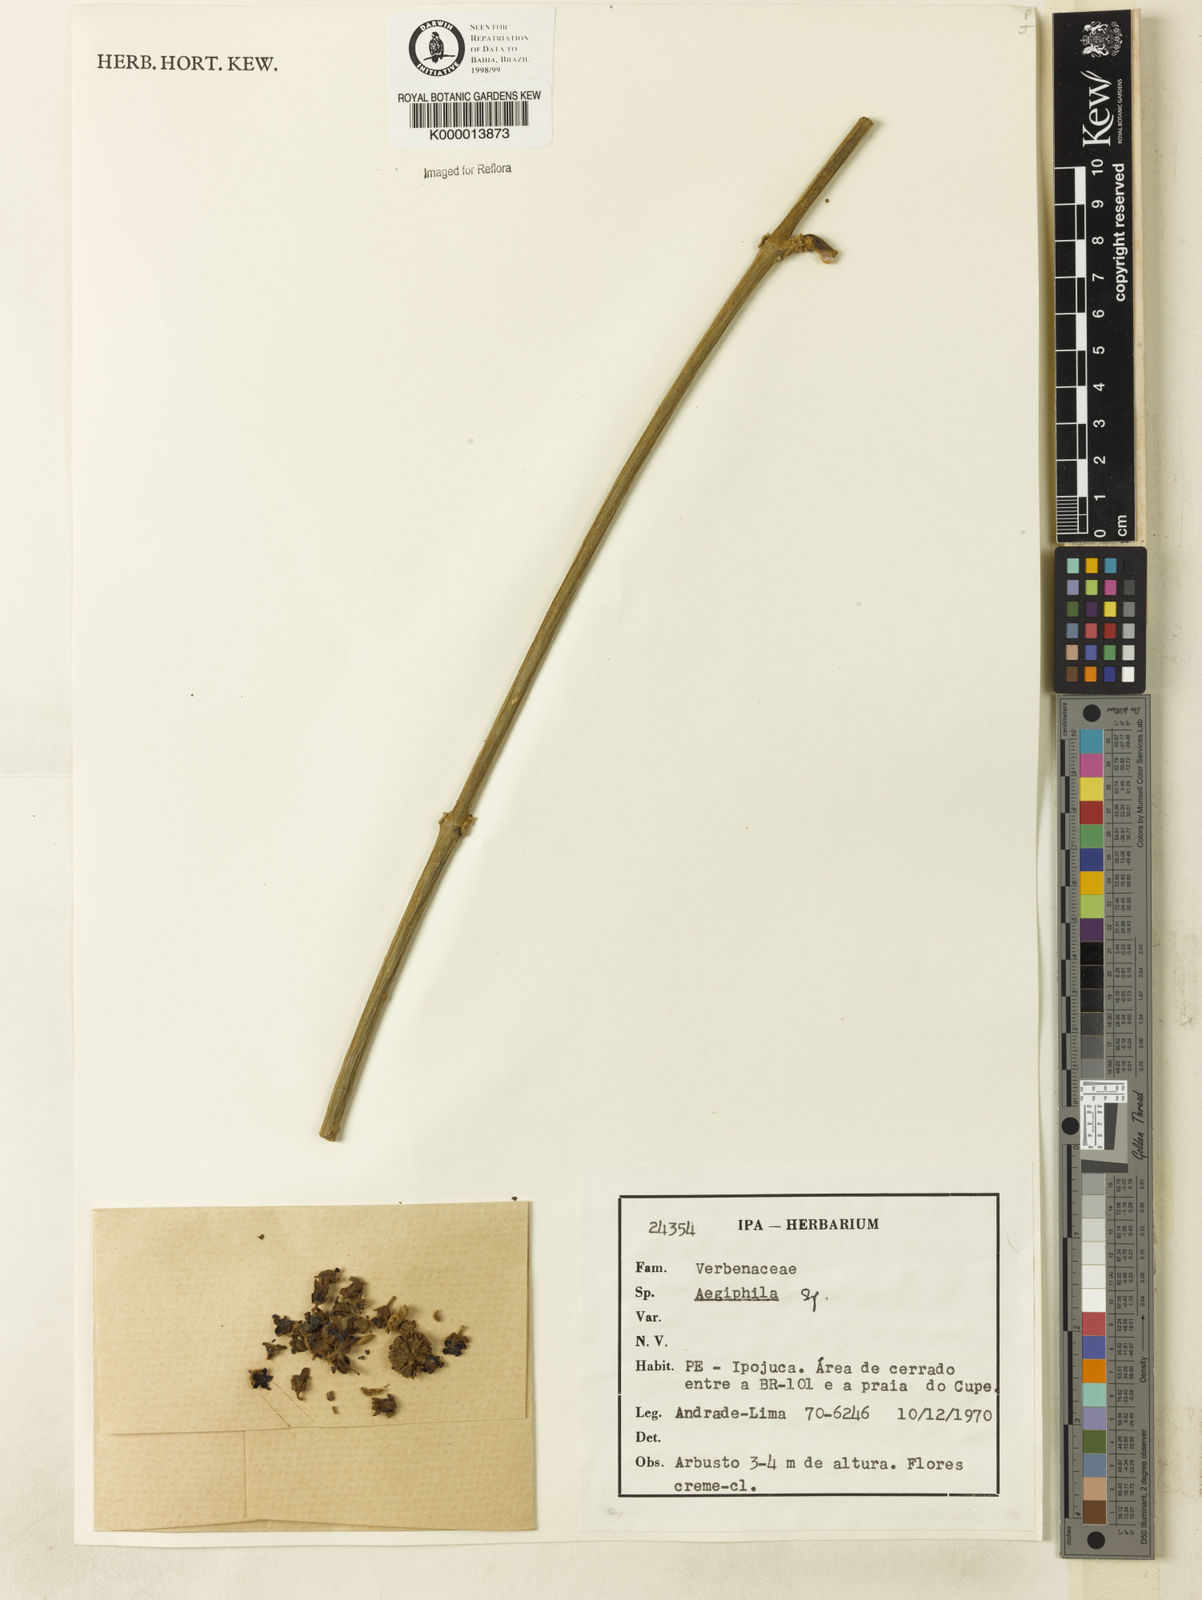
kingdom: Plantae
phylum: Tracheophyta
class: Magnoliopsida
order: Lamiales
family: Lamiaceae
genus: Aegiphila
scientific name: Aegiphila
